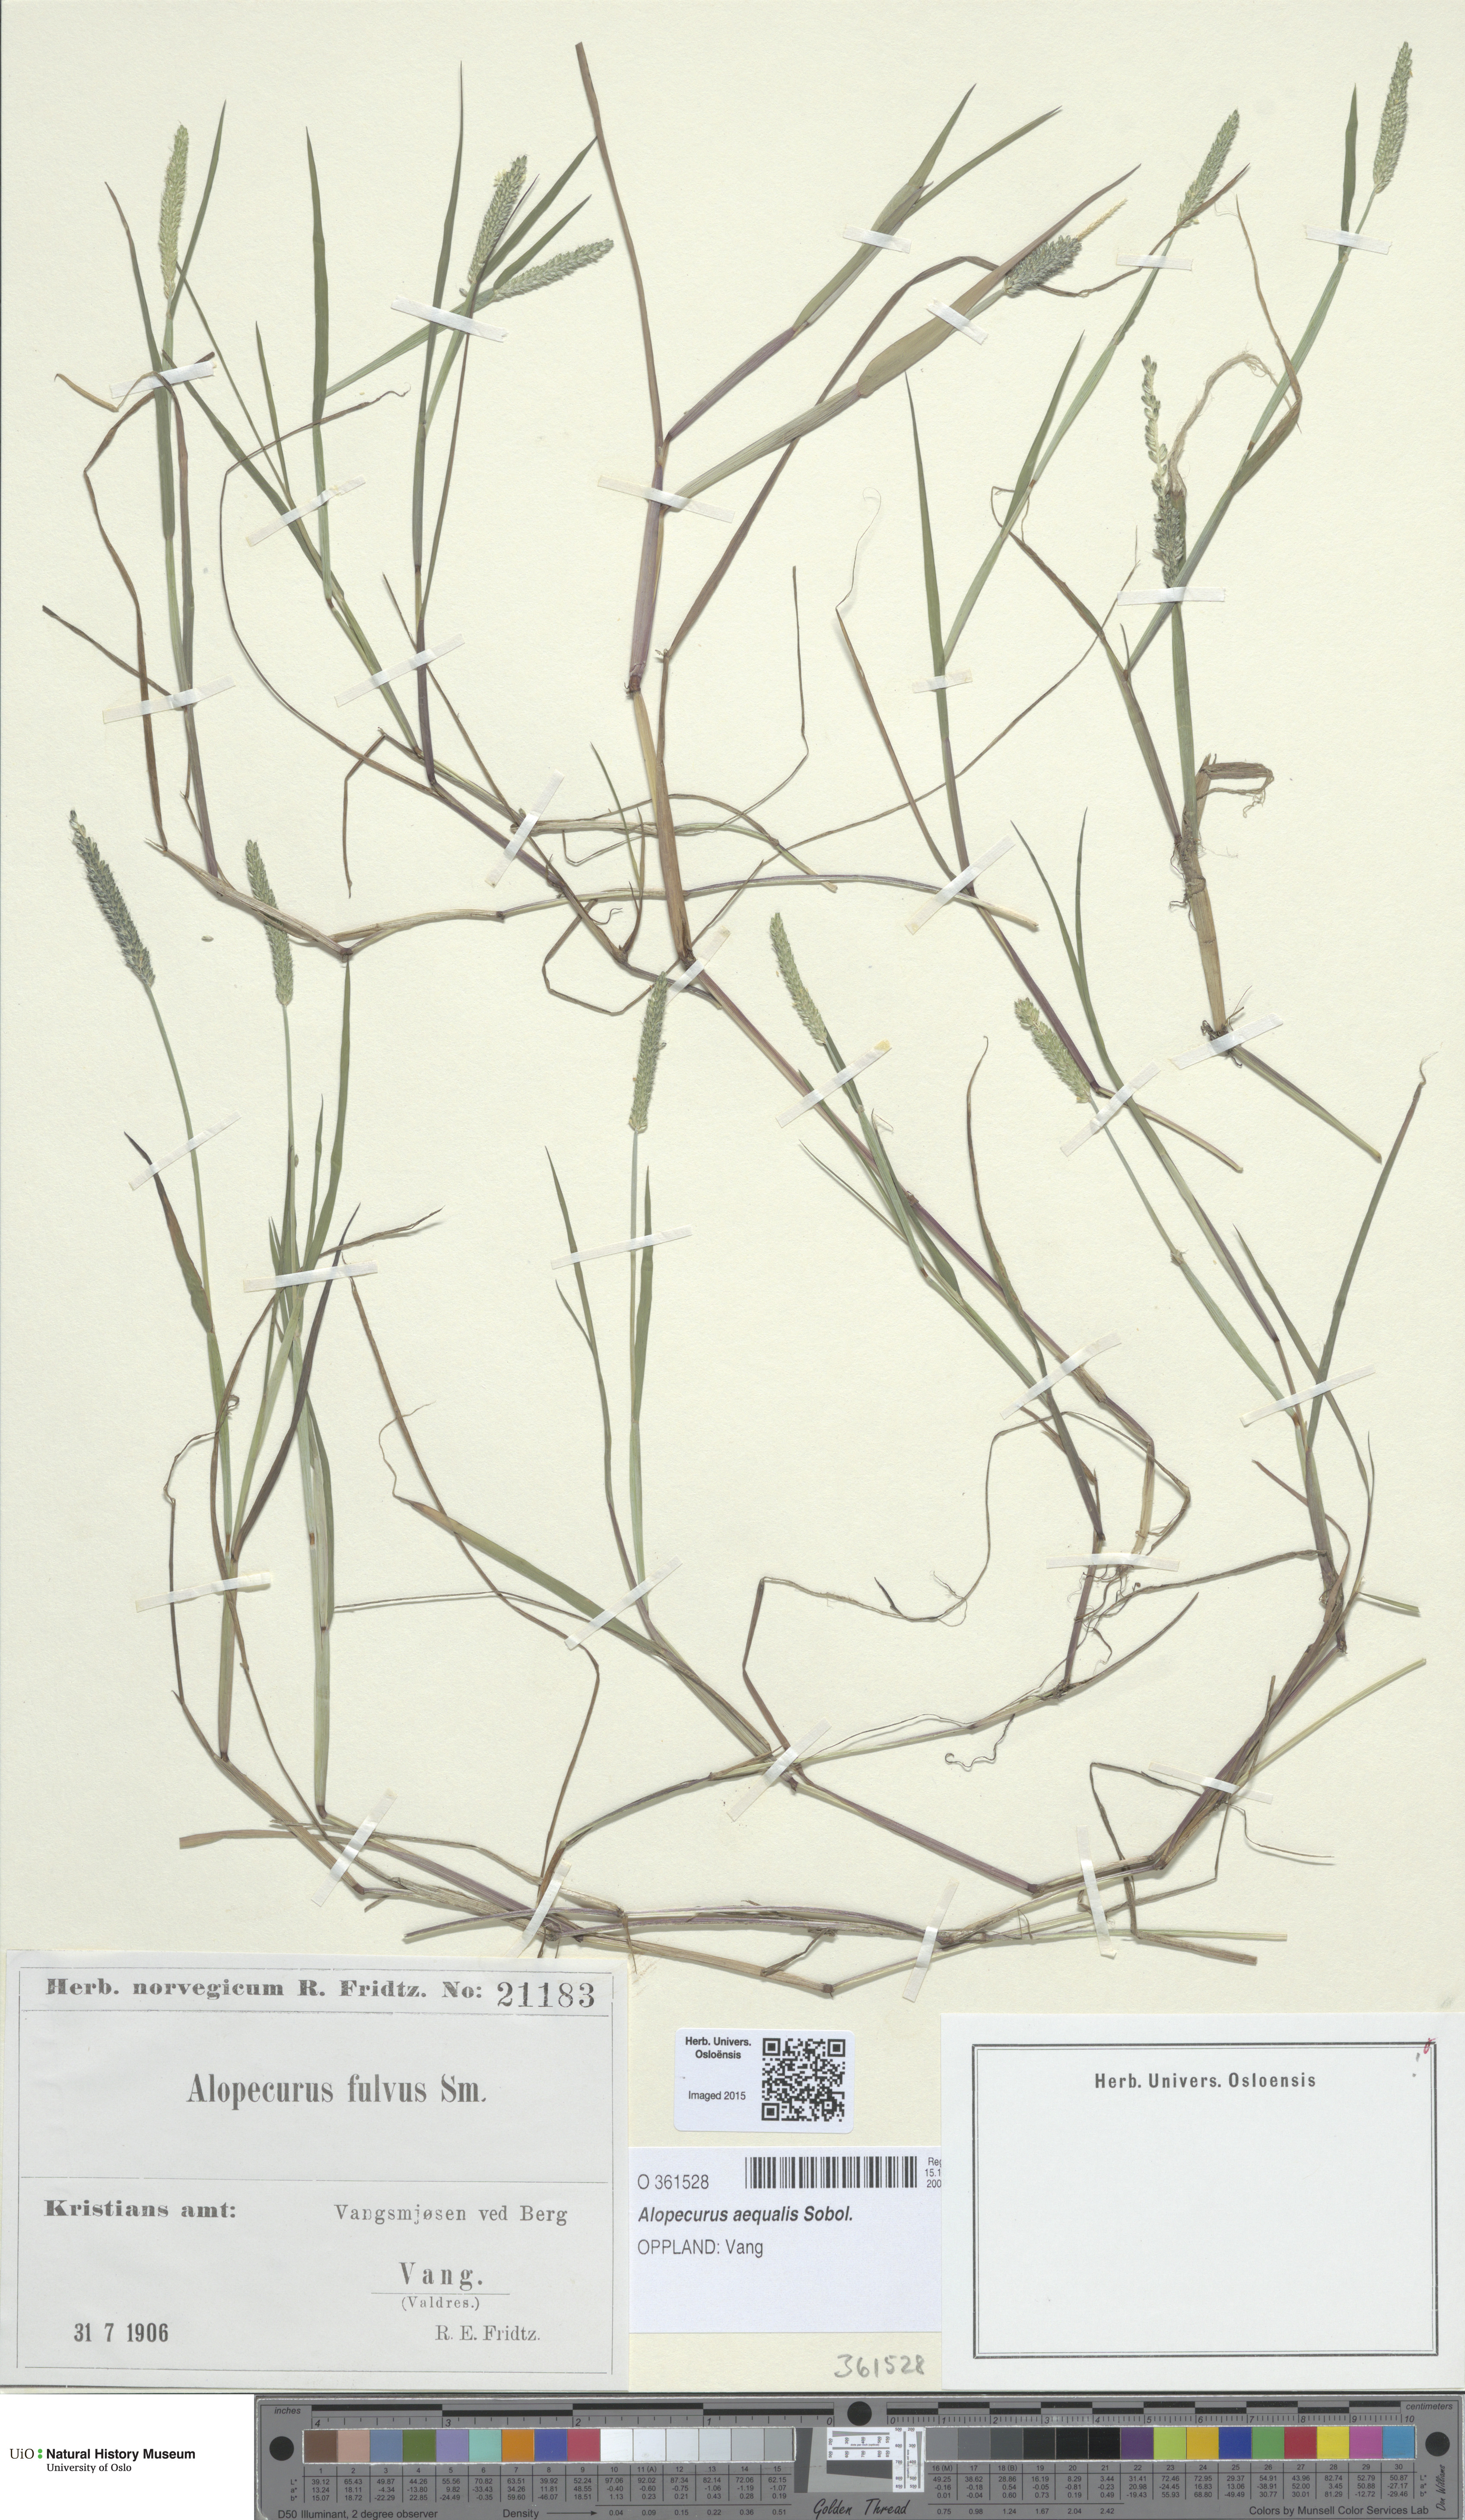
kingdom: Plantae
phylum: Tracheophyta
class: Liliopsida
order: Poales
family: Poaceae
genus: Alopecurus
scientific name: Alopecurus aequalis
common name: Orange foxtail
